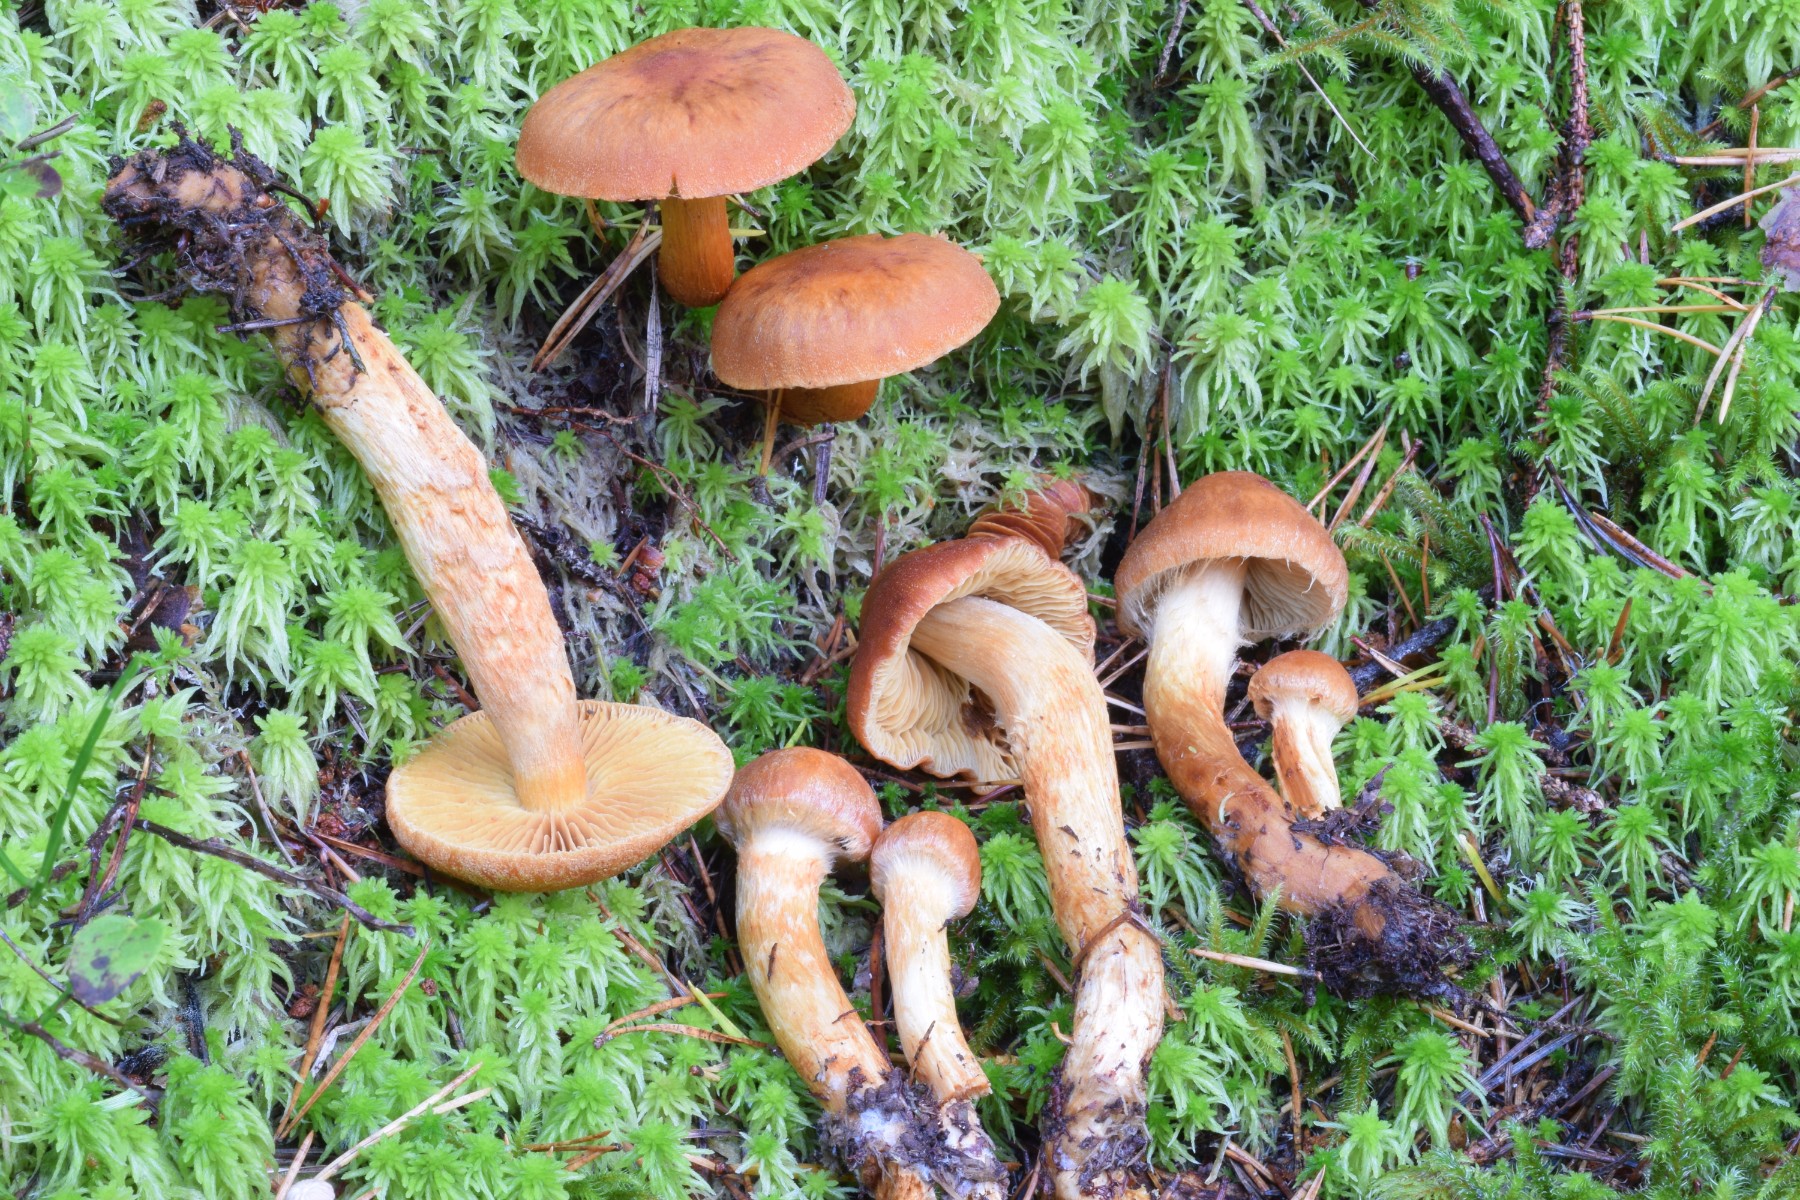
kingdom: Fungi
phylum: Basidiomycota
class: Agaricomycetes
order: Agaricales
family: Cortinariaceae
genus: Aureonarius
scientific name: Aureonarius limonius
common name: orangegul slørhat
